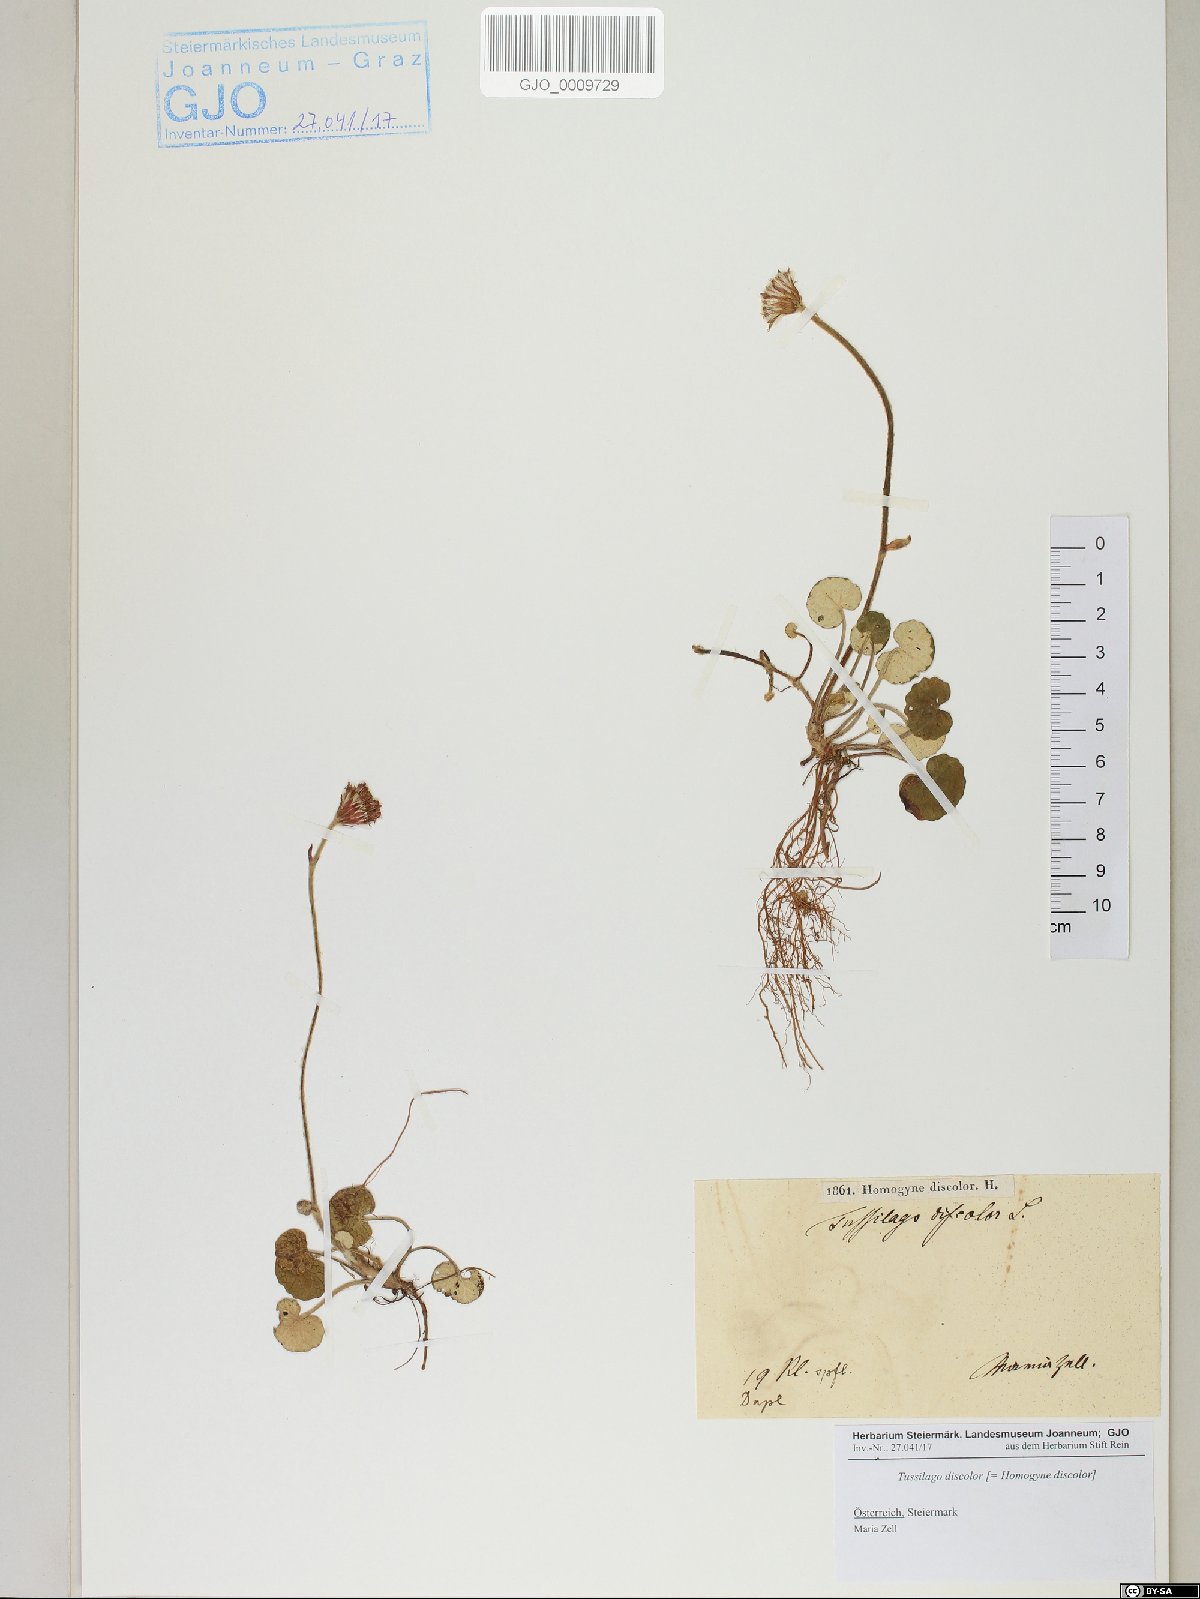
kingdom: Plantae
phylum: Tracheophyta
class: Magnoliopsida
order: Asterales
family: Asteraceae
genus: Homogyne
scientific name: Homogyne discolor
